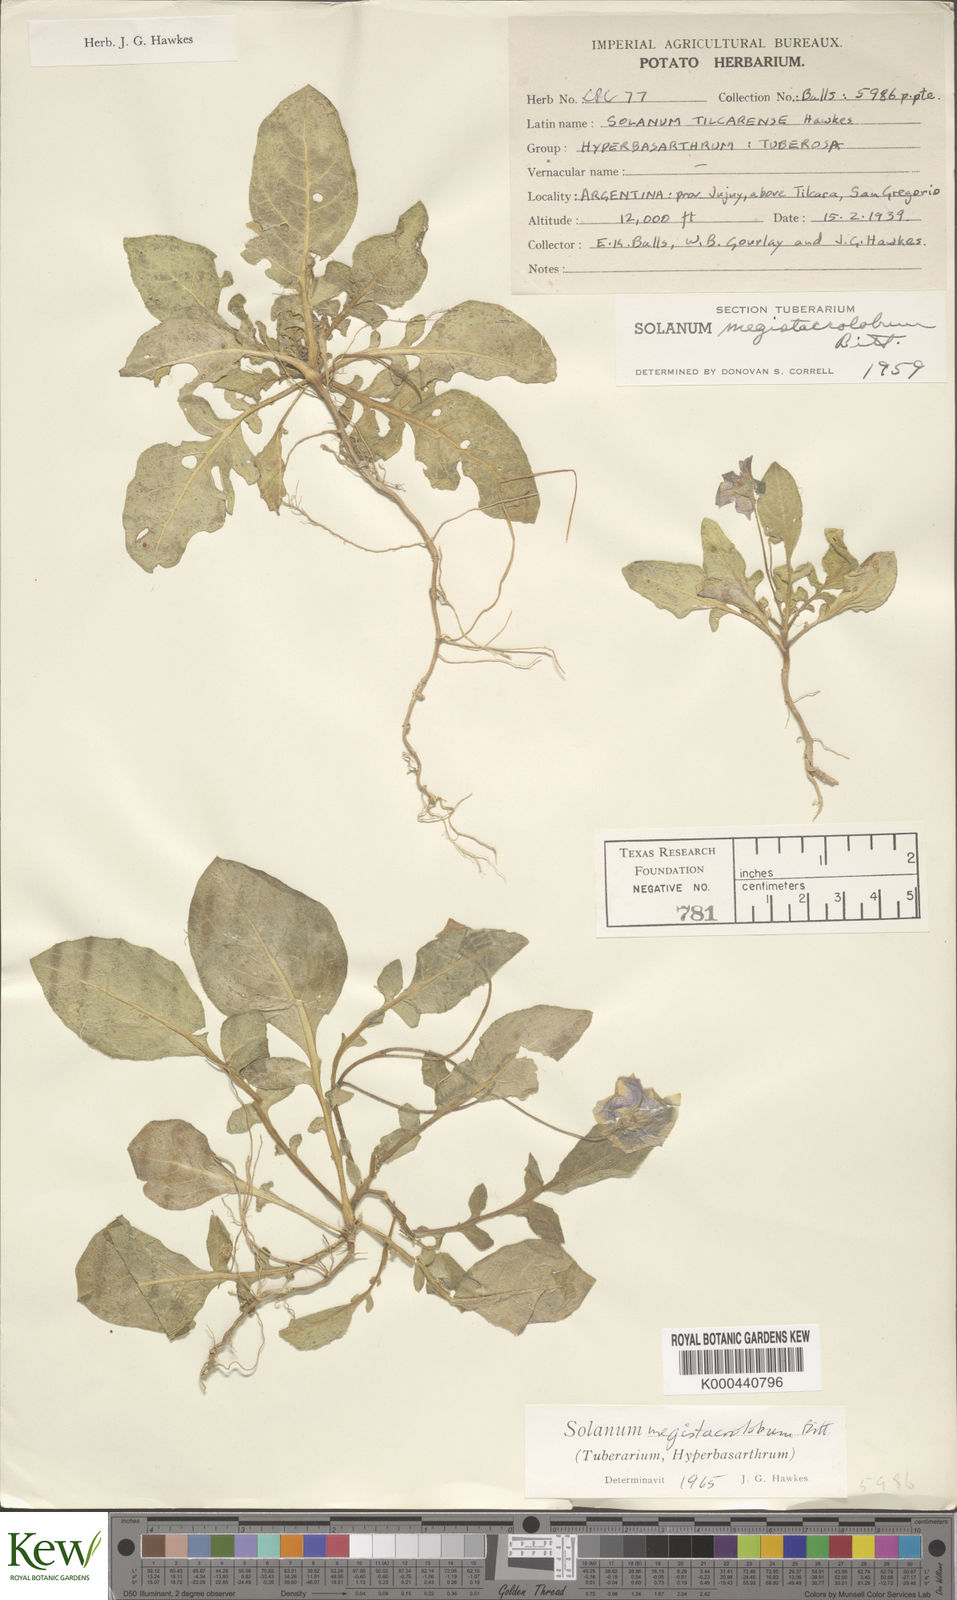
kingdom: Plantae
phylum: Tracheophyta
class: Magnoliopsida
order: Solanales
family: Solanaceae
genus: Solanum
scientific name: Solanum boliviense
